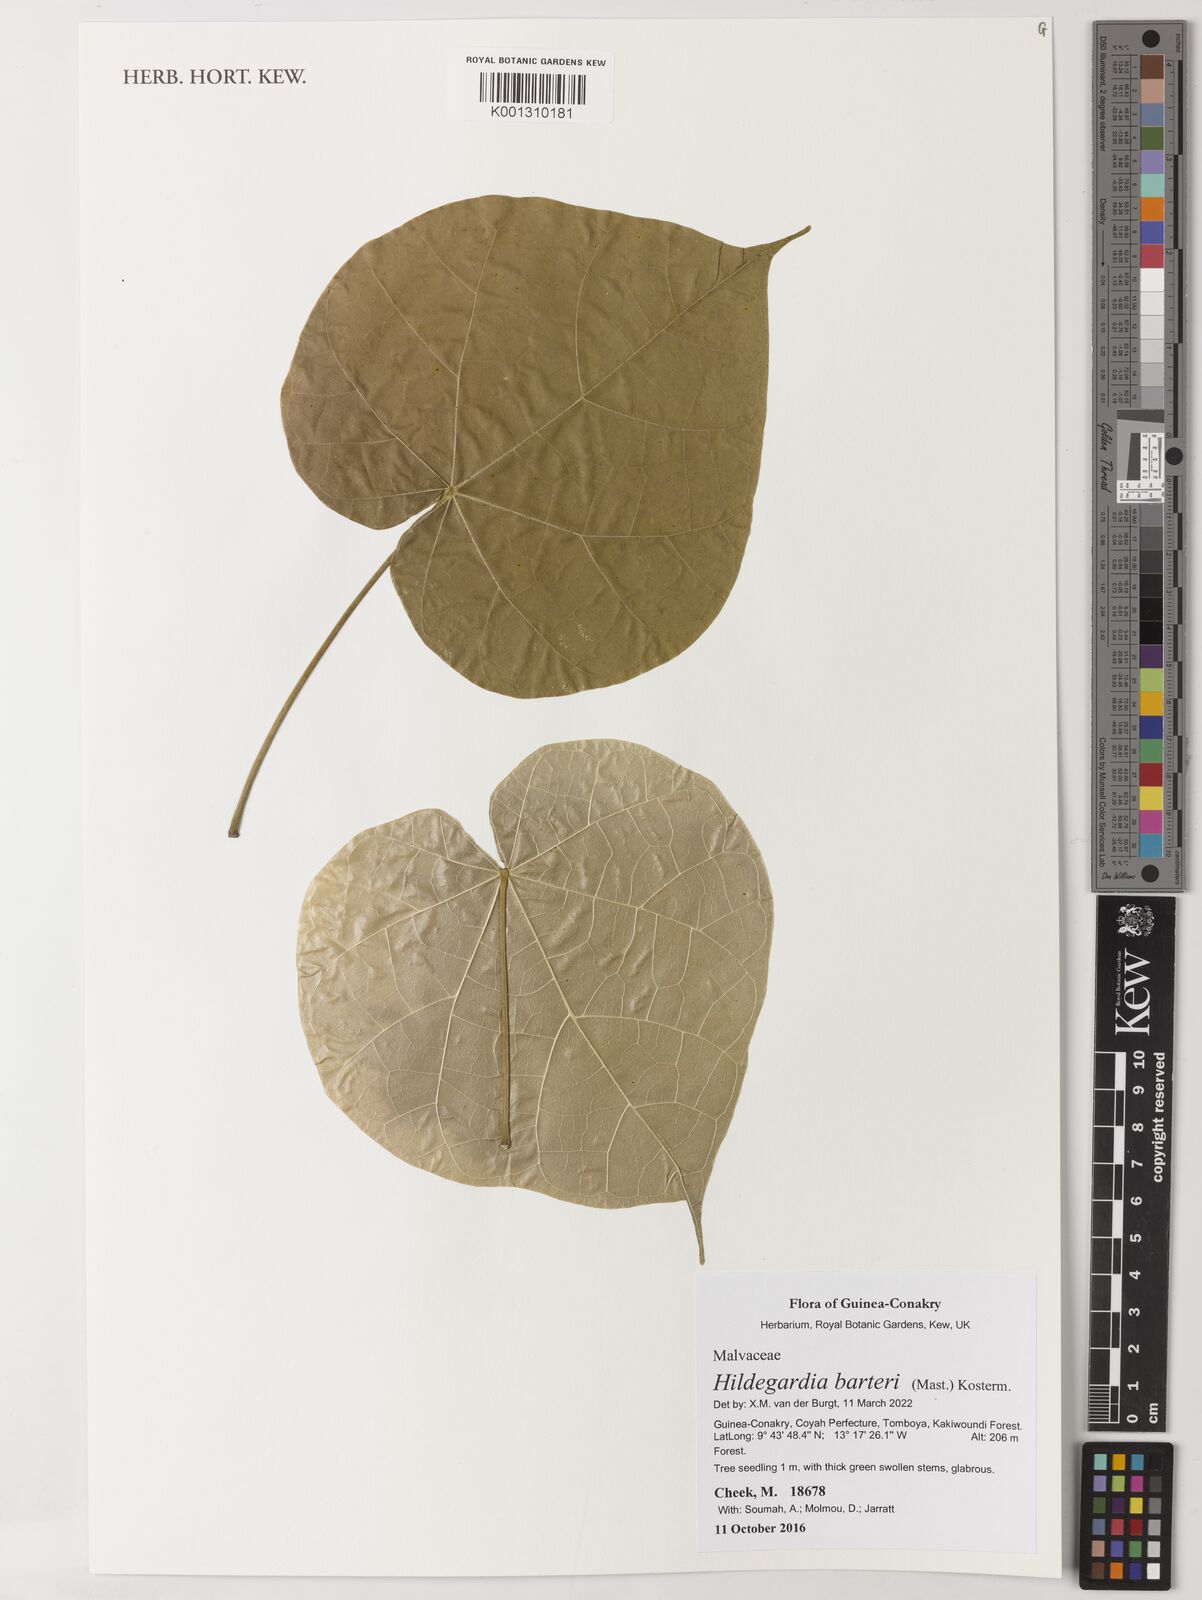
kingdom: Plantae
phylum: Tracheophyta
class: Magnoliopsida
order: Malvales
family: Malvaceae
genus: Hildegardia
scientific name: Hildegardia barteri
